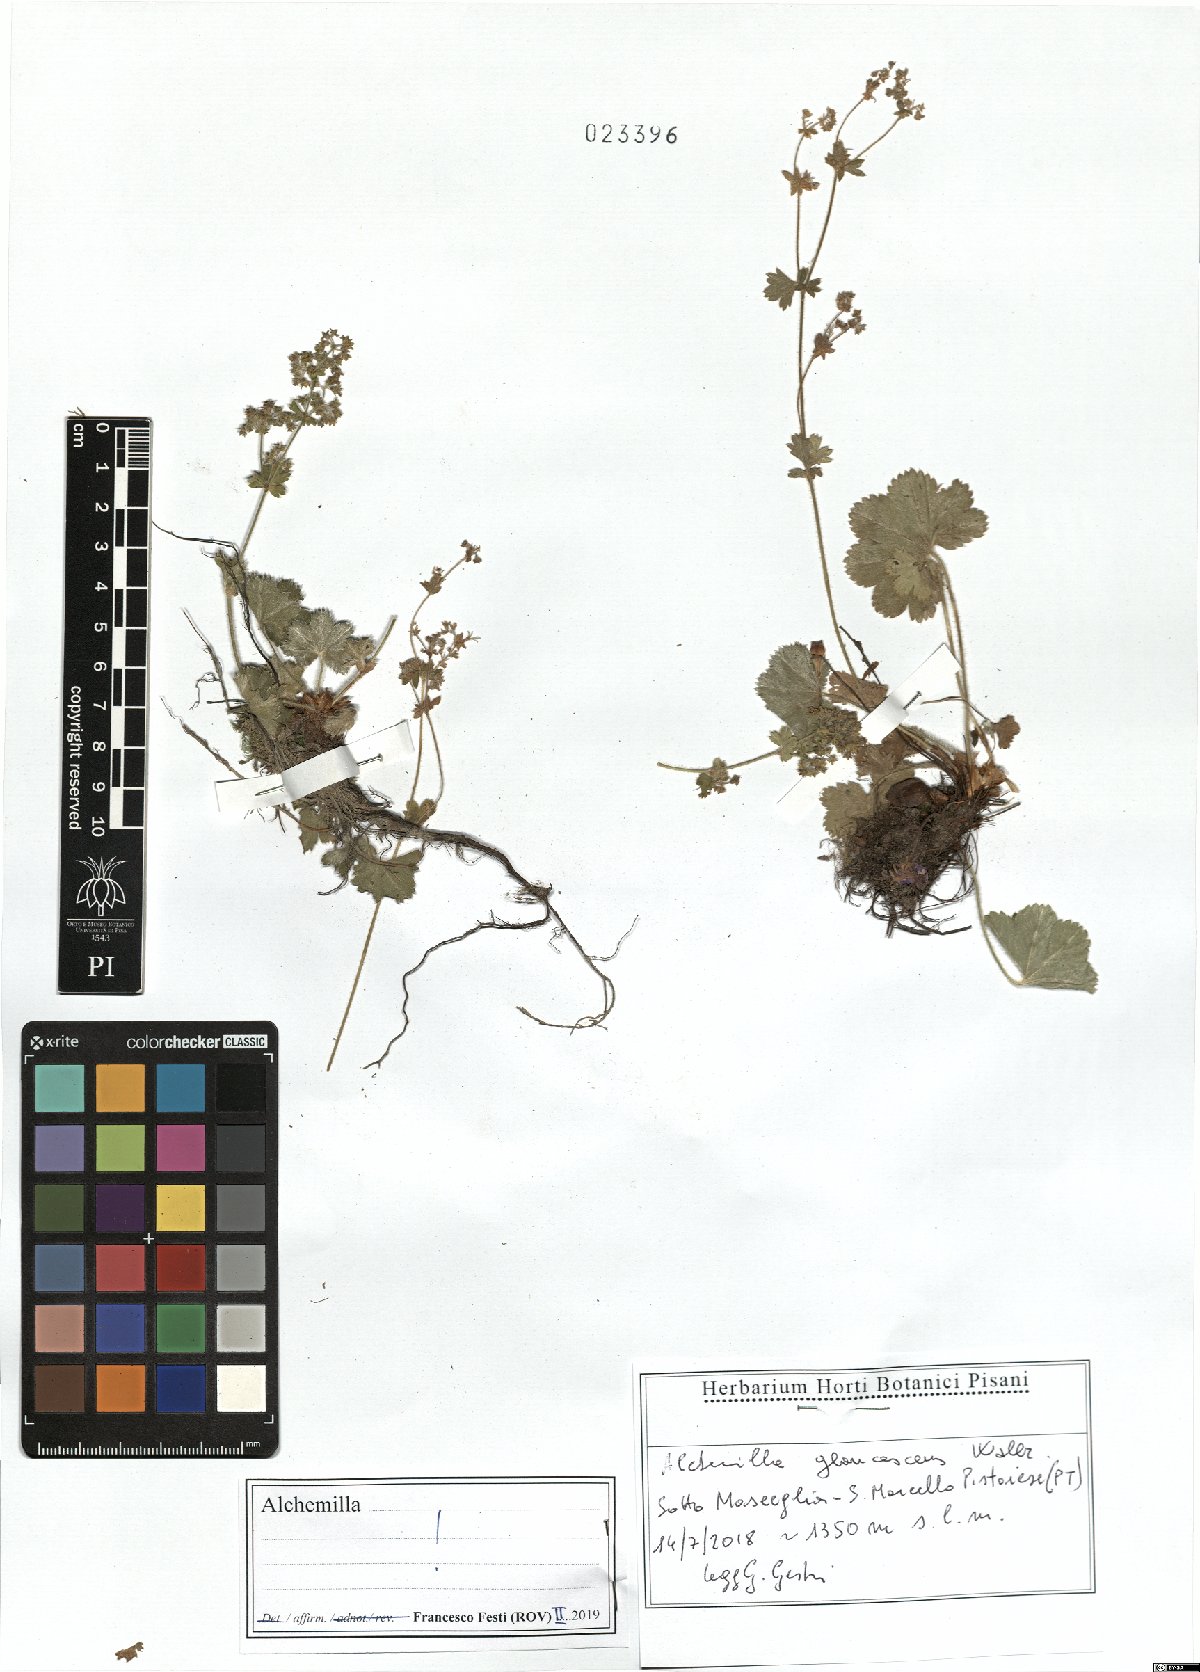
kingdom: Plantae
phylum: Tracheophyta
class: Magnoliopsida
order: Rosales
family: Rosaceae
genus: Alchemilla
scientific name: Alchemilla glaucescens
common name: Silky lady's mantle
